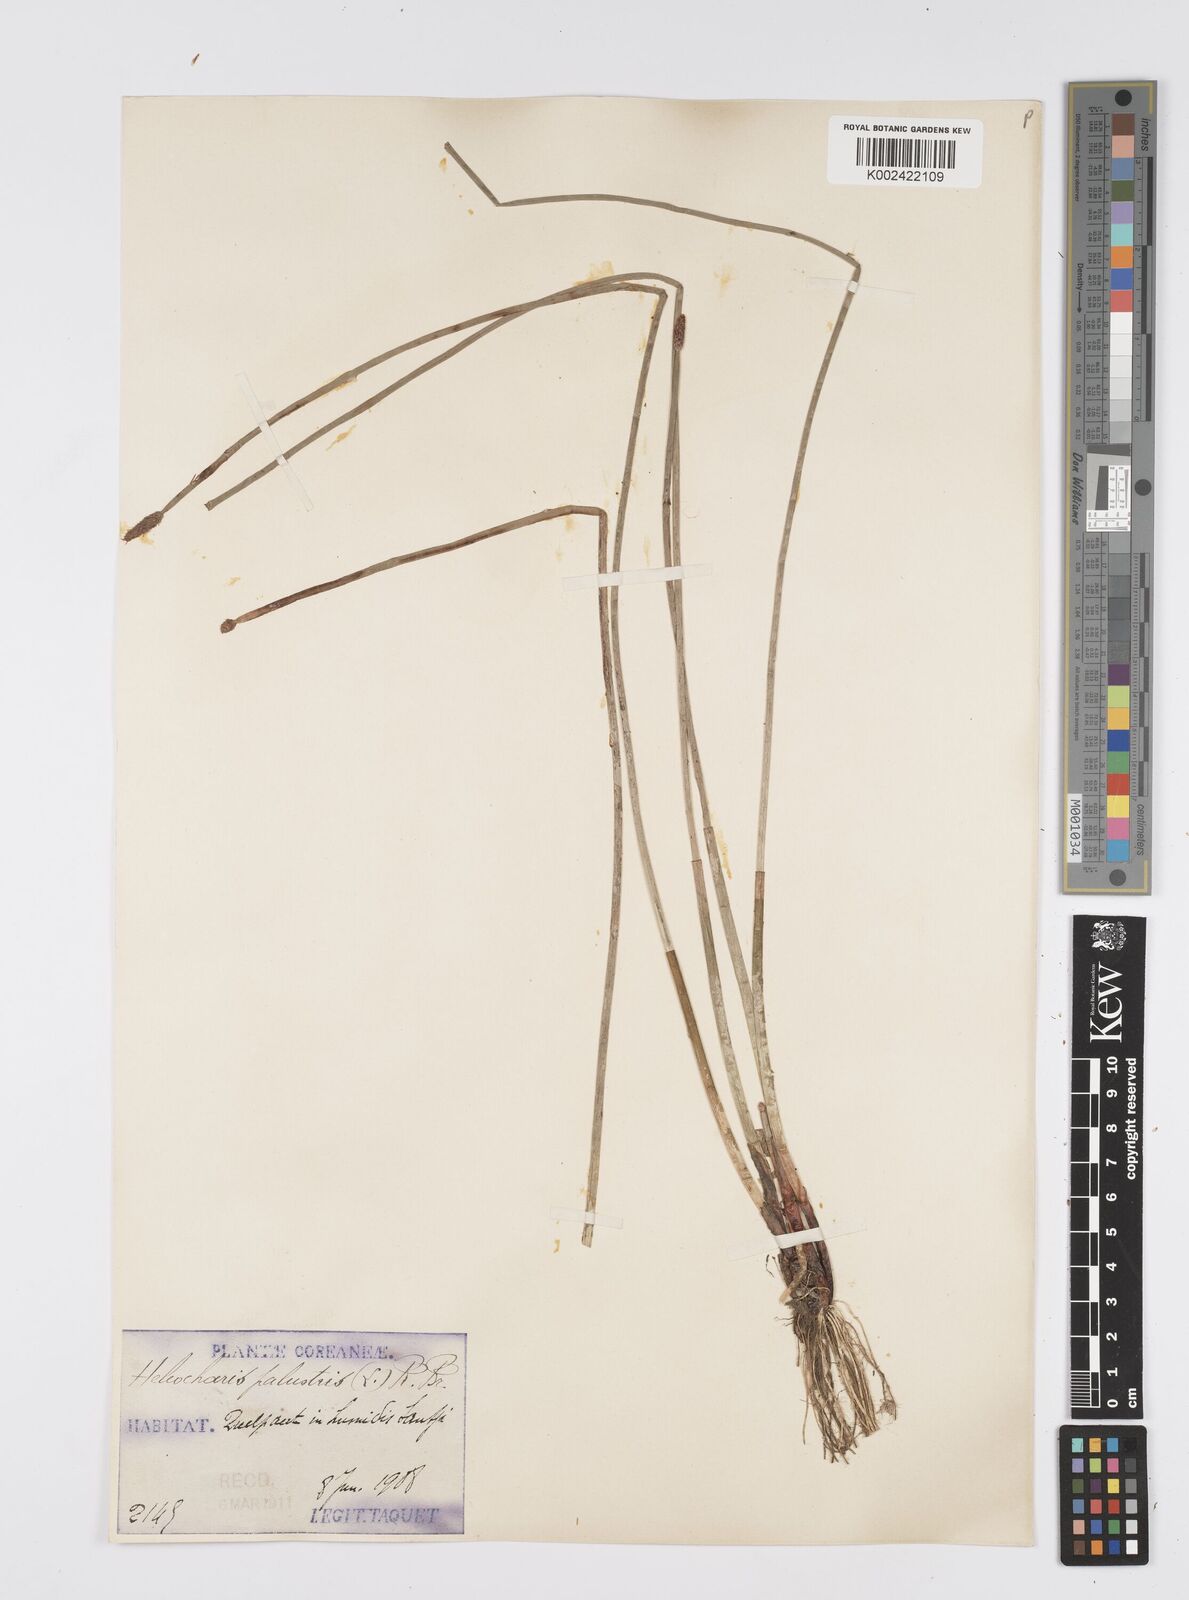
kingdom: Plantae
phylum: Tracheophyta
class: Liliopsida
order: Poales
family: Cyperaceae
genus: Eleocharis
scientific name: Eleocharis palustris
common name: Common spike-rush
